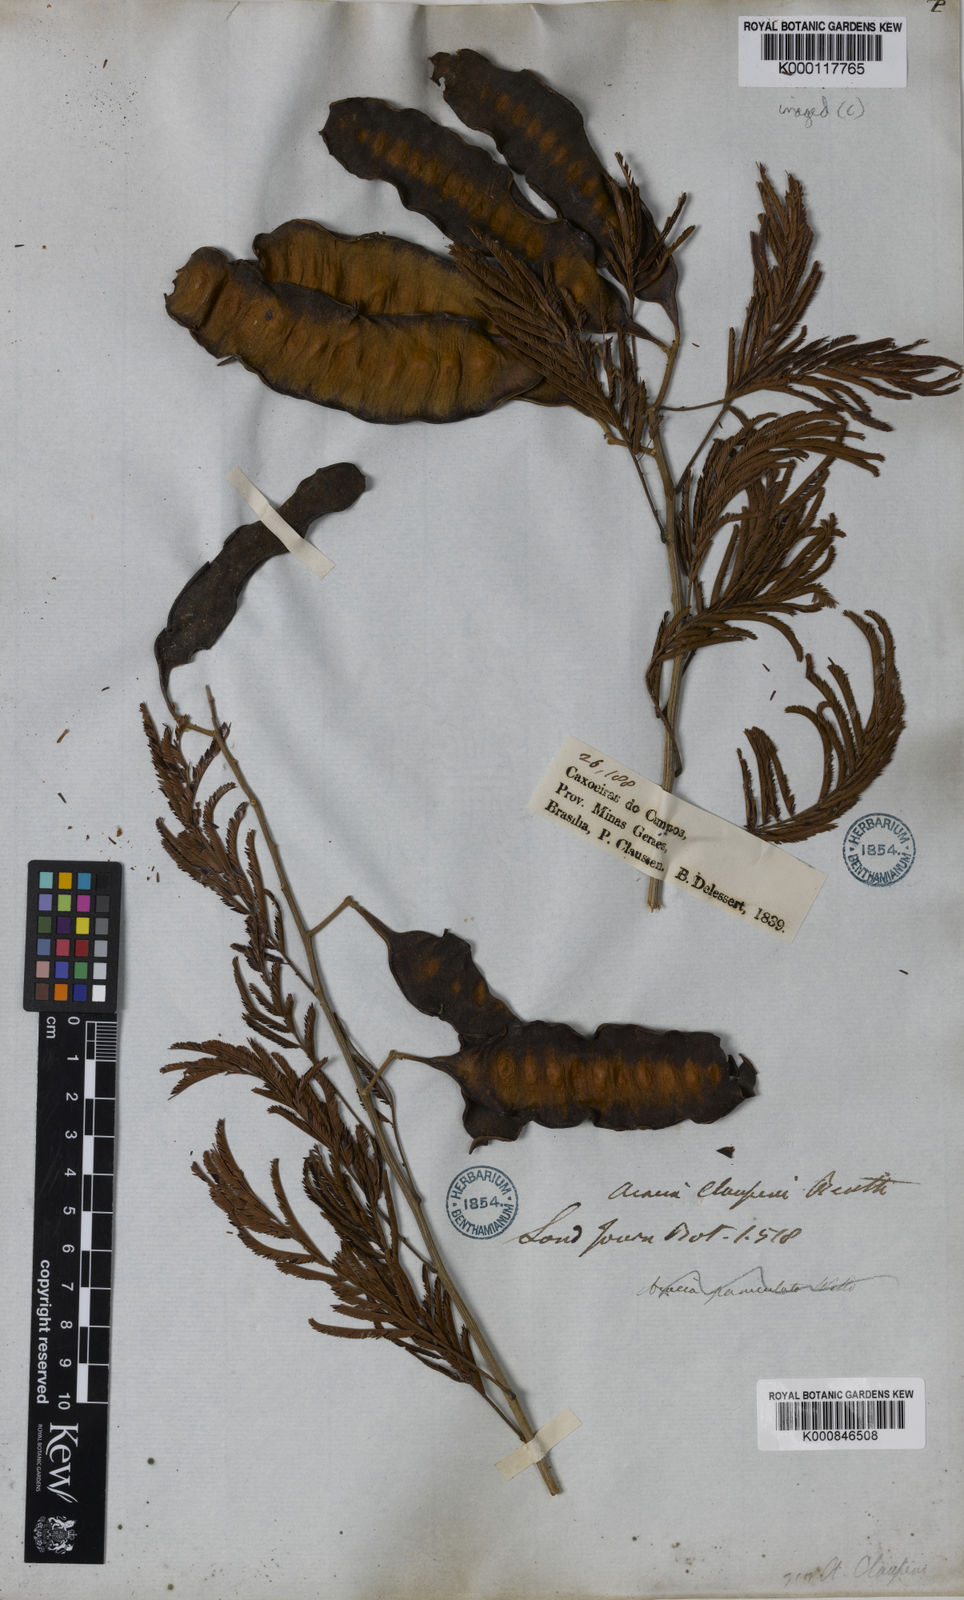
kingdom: Plantae
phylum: Tracheophyta
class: Magnoliopsida
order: Fabales
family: Fabaceae
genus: Senegalia
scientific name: Senegalia tenuifolia
